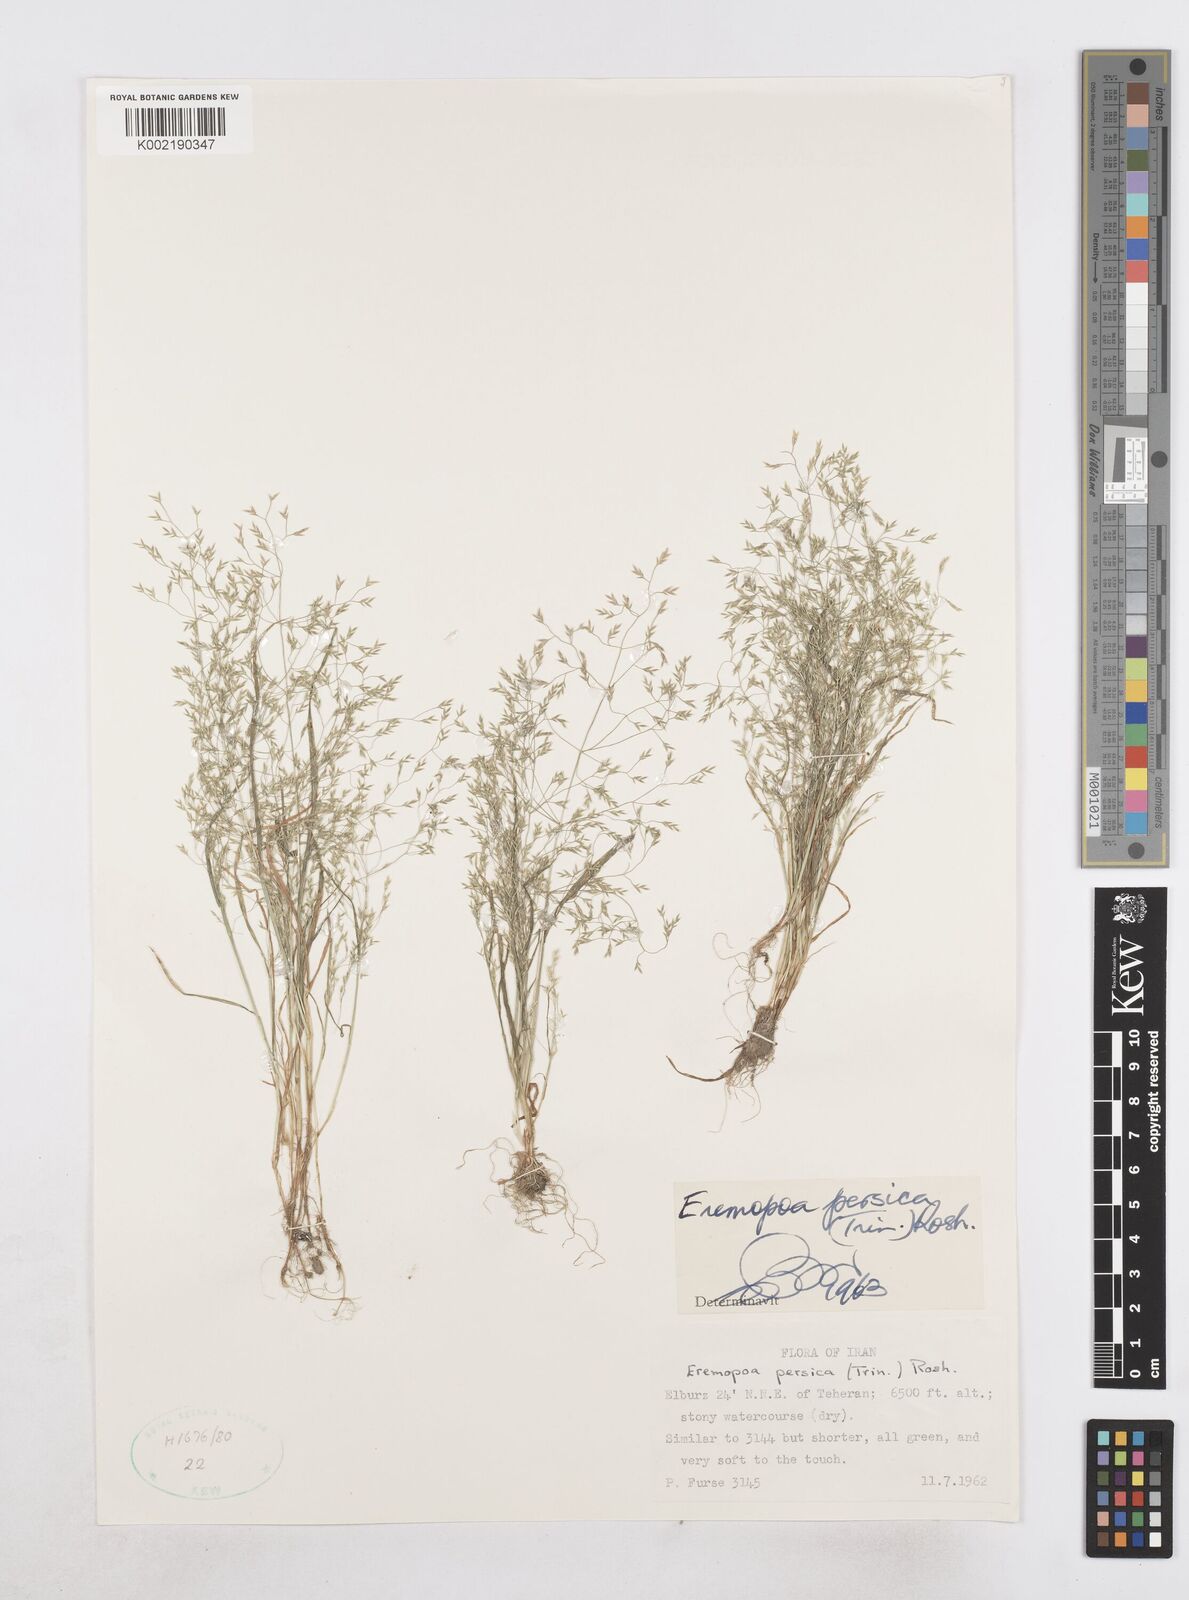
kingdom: Plantae
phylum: Tracheophyta
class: Liliopsida
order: Poales
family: Poaceae
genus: Poa
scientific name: Poa persica
